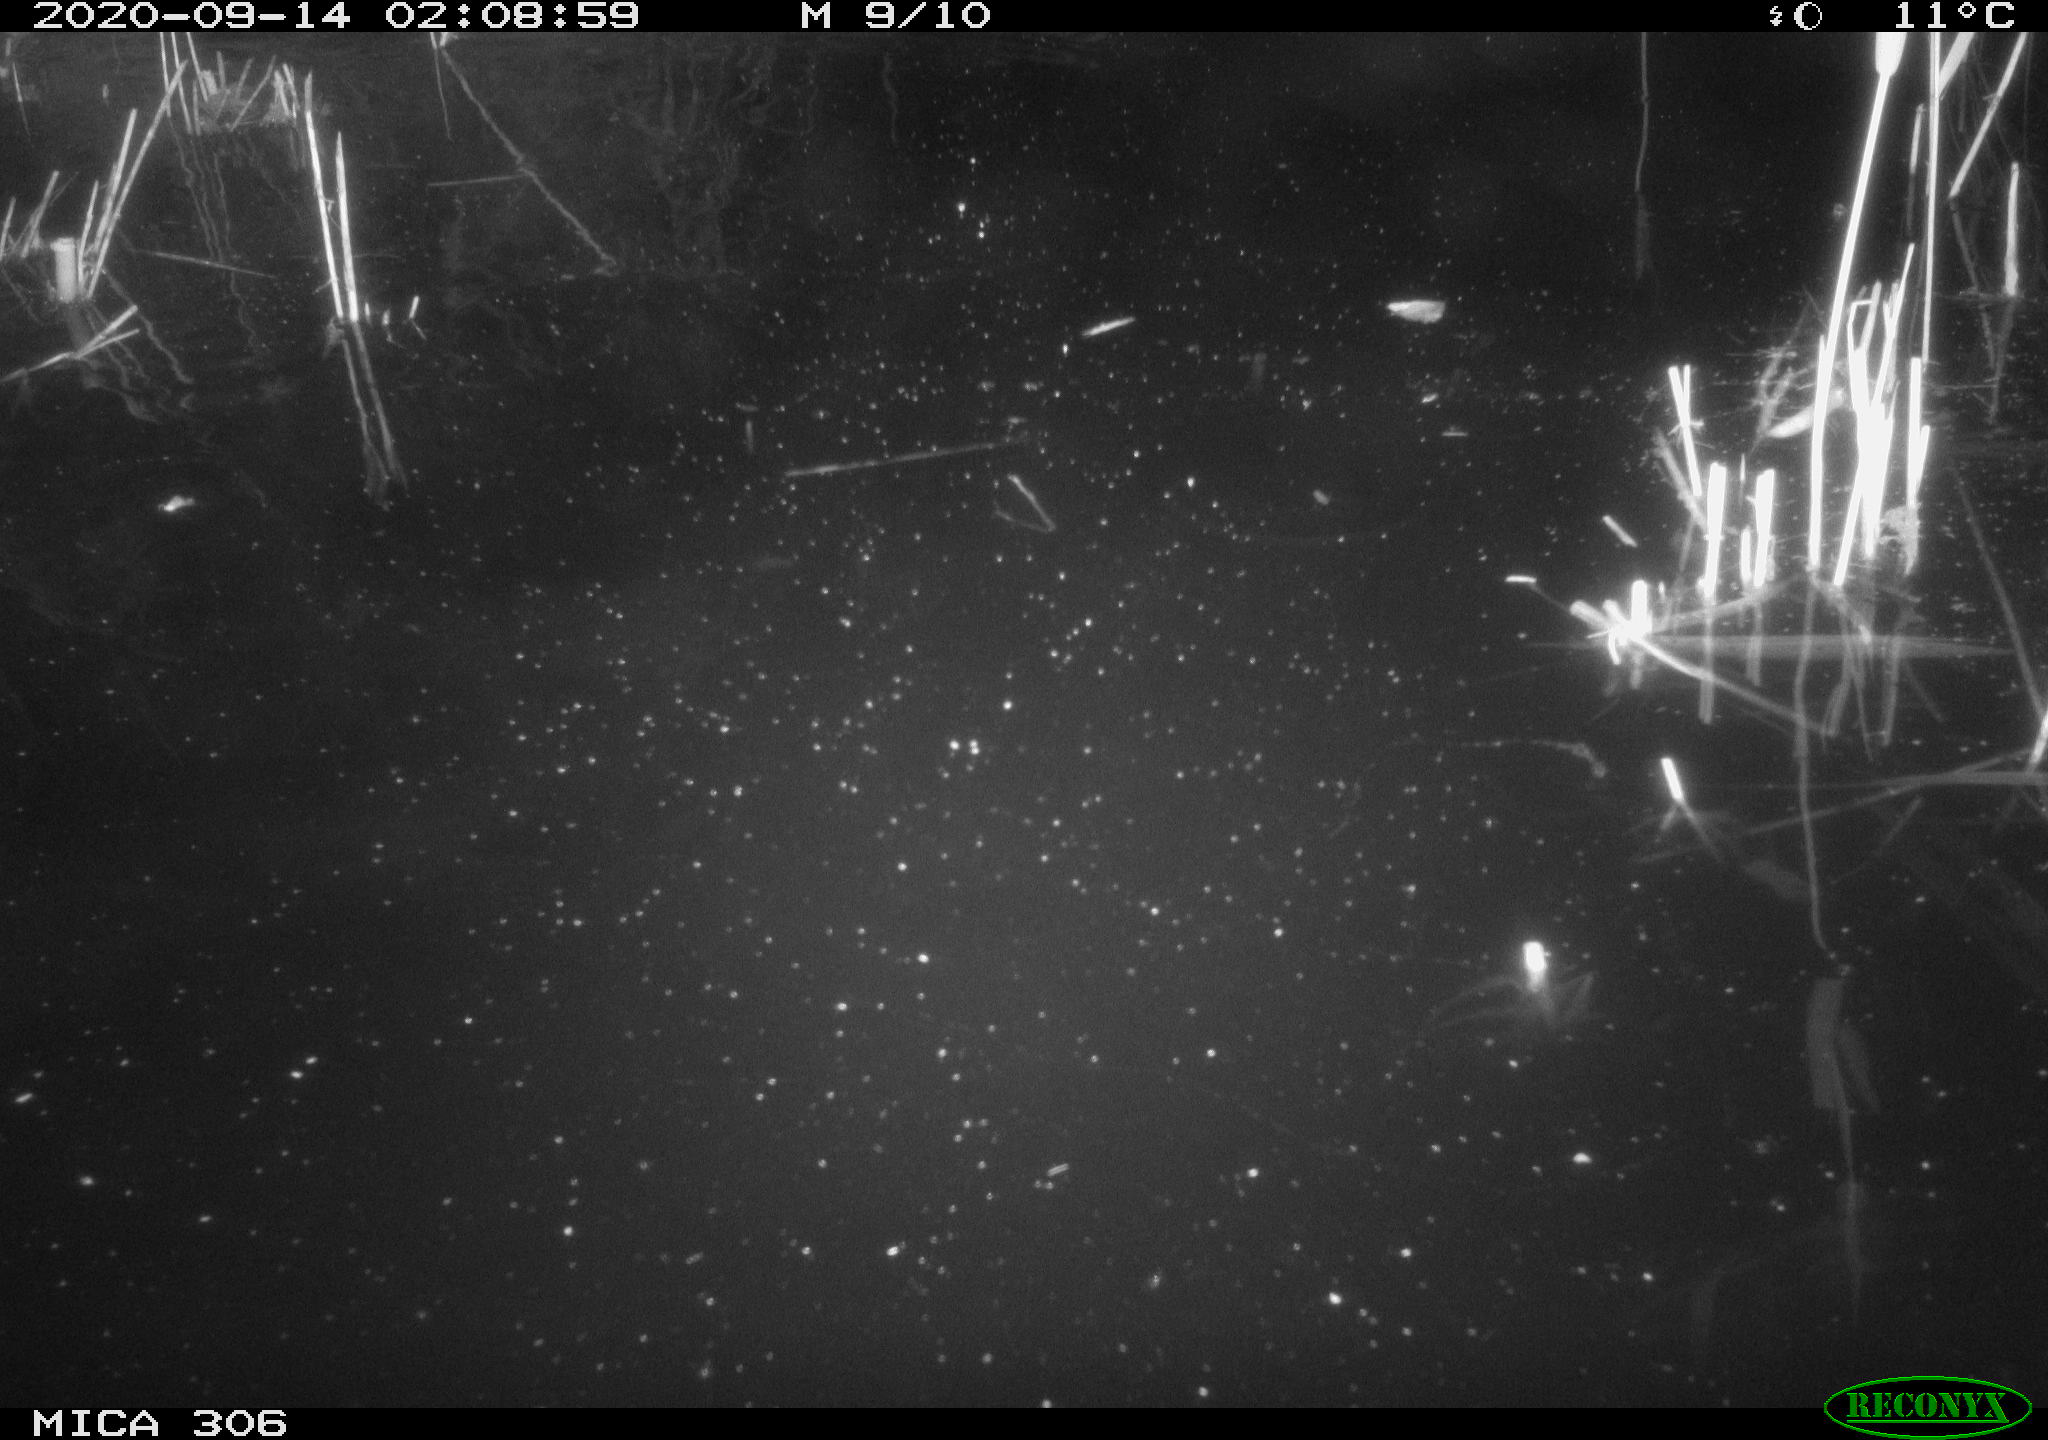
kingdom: Animalia
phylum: Chordata
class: Mammalia
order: Rodentia
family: Cricetidae
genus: Ondatra
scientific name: Ondatra zibethicus
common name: Muskrat
